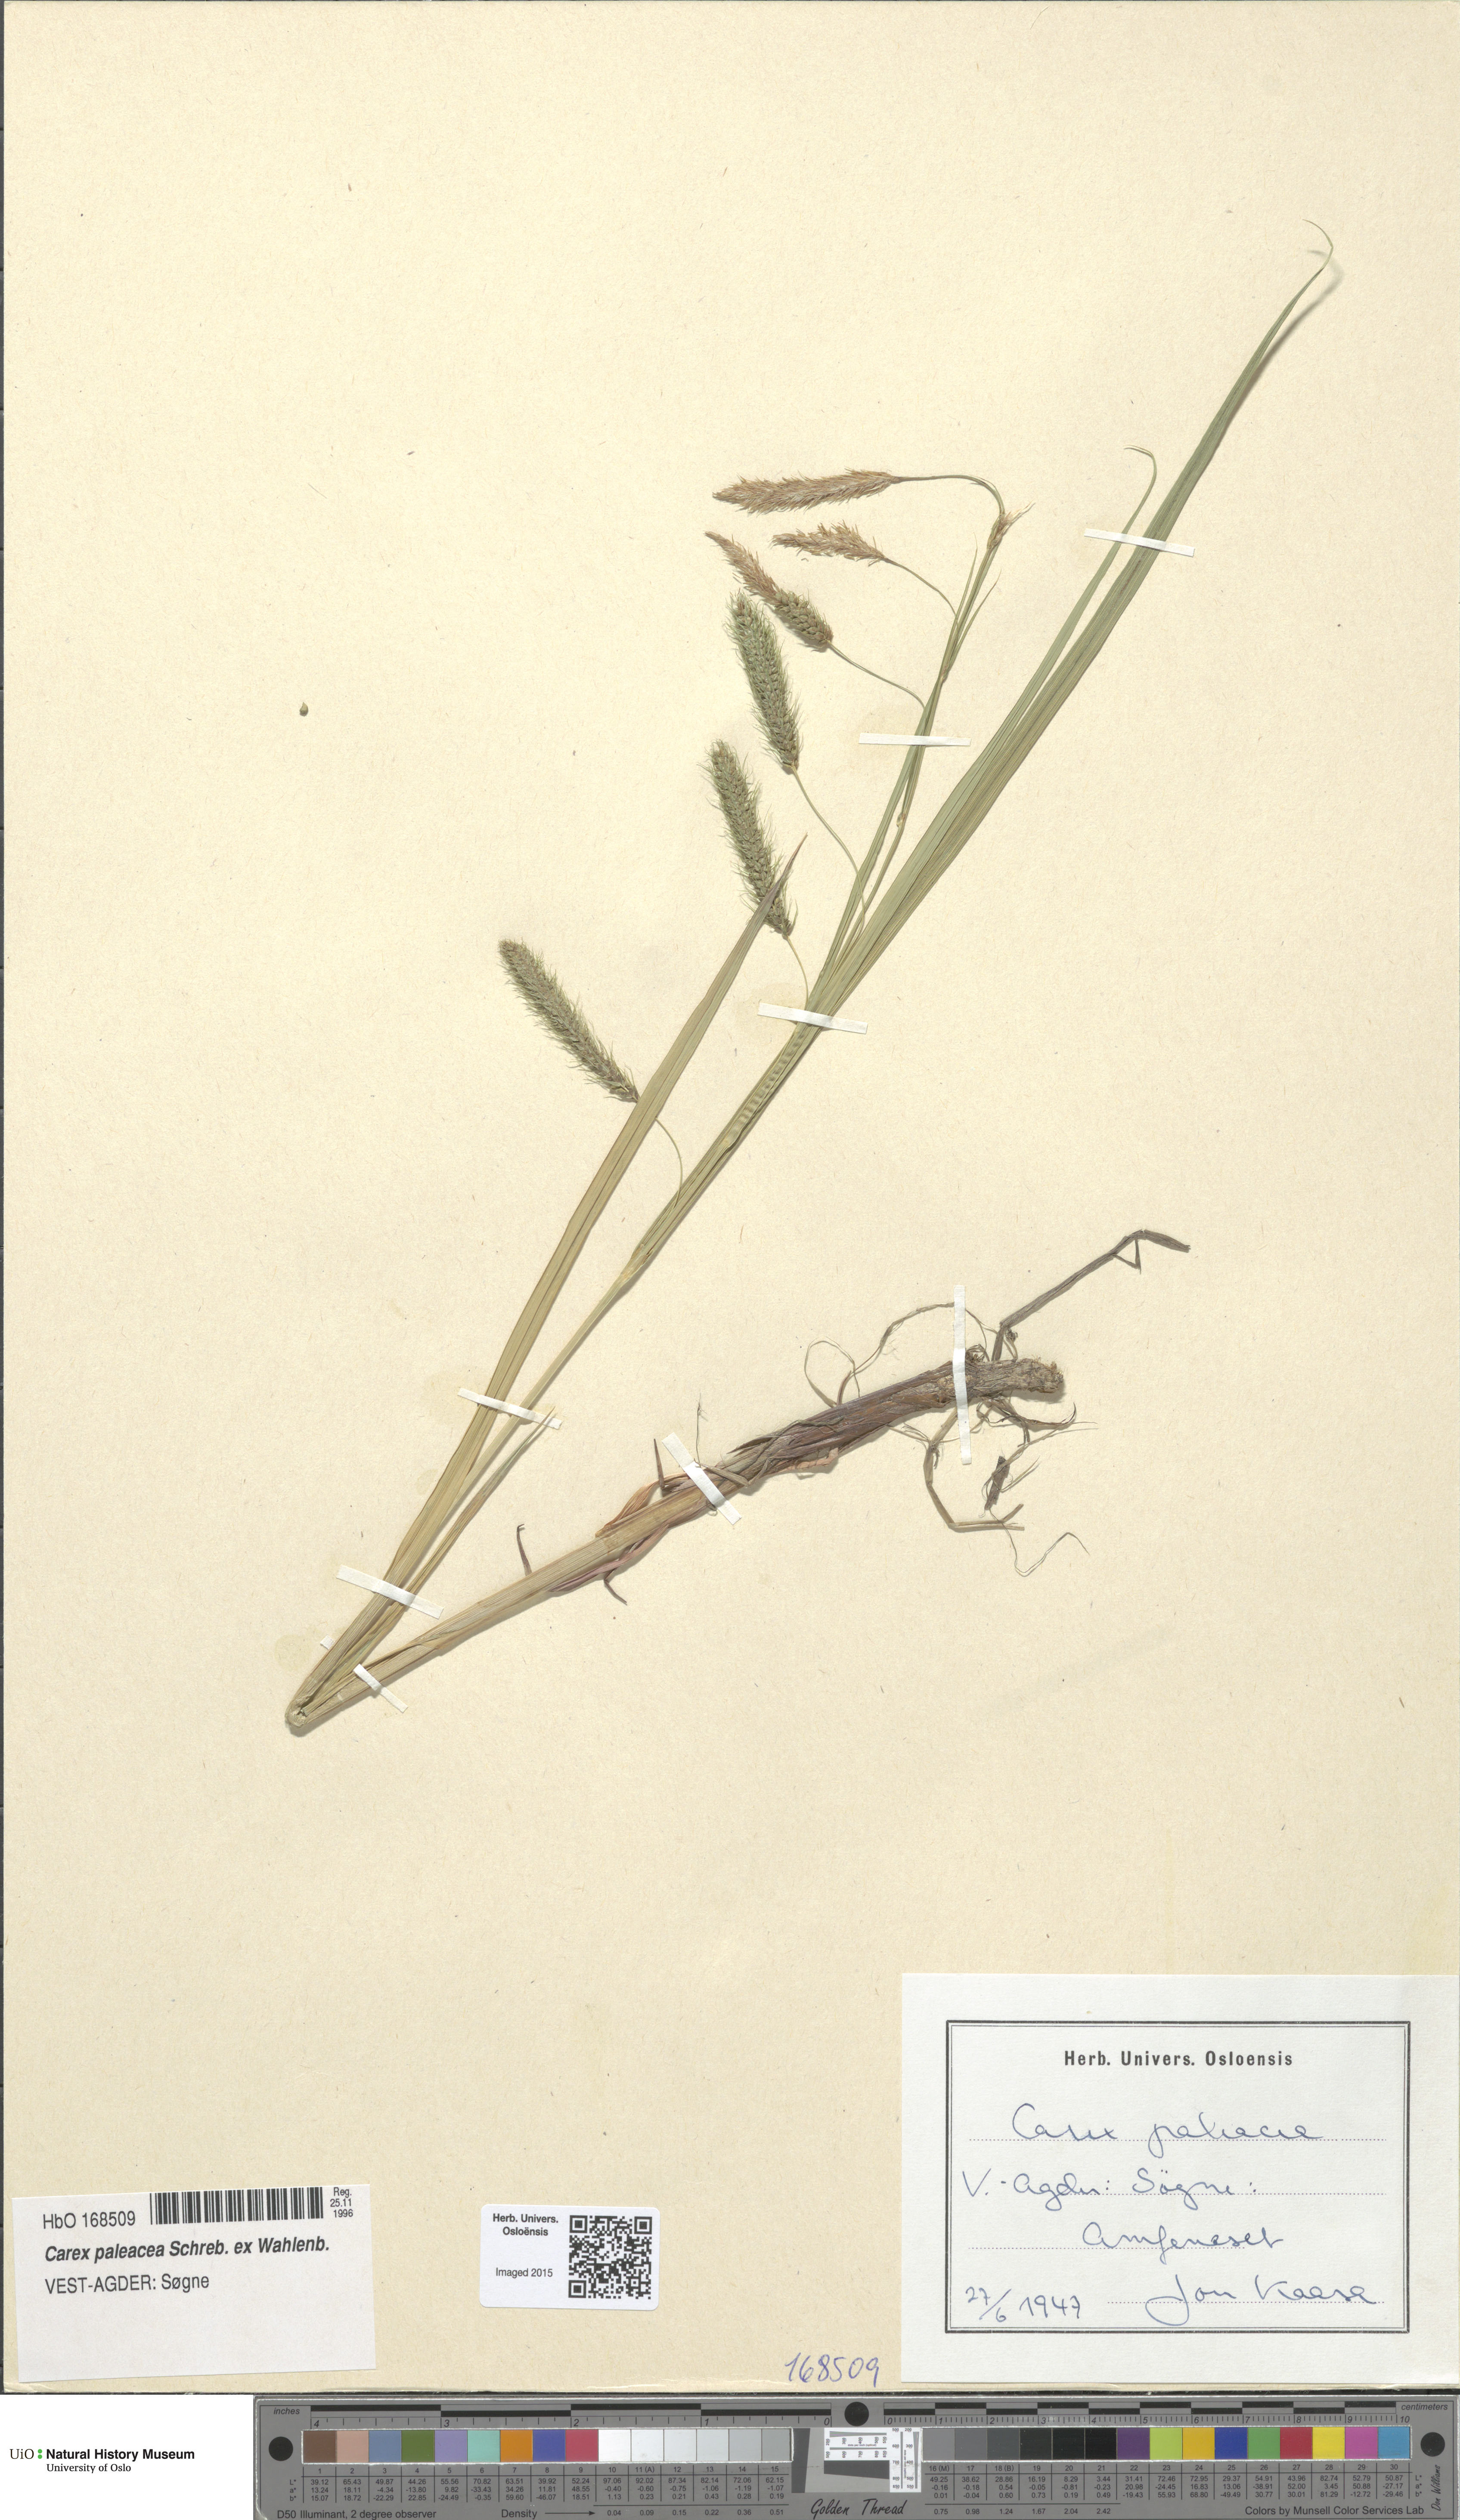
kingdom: Plantae
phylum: Tracheophyta
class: Liliopsida
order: Poales
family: Cyperaceae
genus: Carex
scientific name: Carex paleacea
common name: Chaffy sedge
